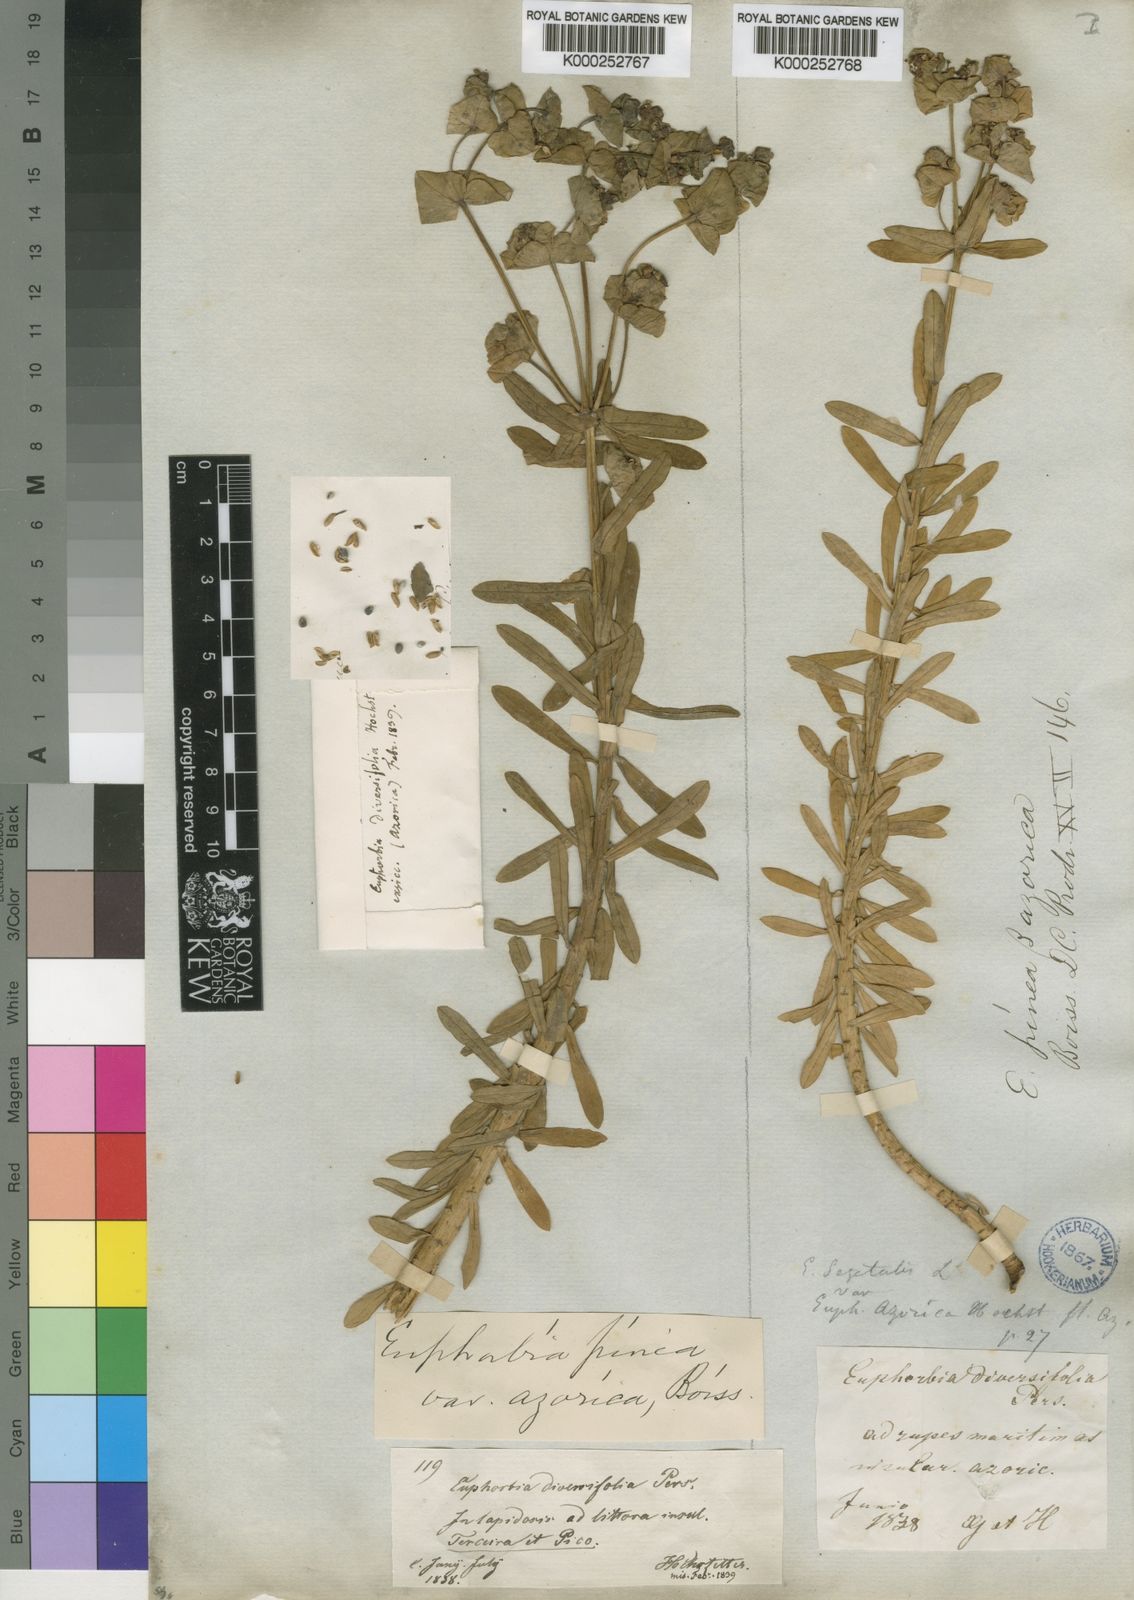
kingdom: Plantae
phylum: Tracheophyta
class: Magnoliopsida
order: Malpighiales
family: Euphorbiaceae
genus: Euphorbia
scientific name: Euphorbia azorica
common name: Erva-leitera
